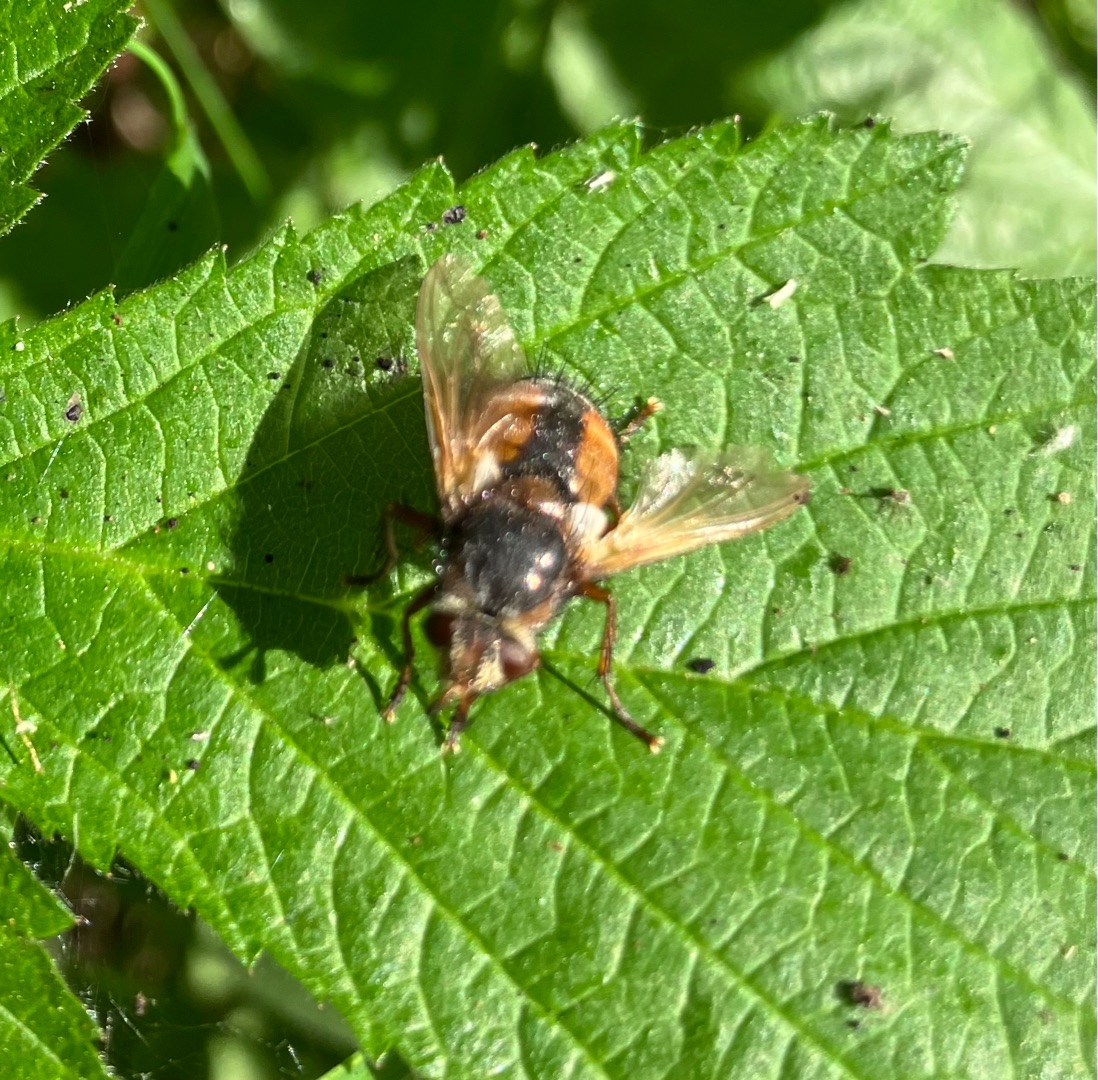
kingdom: Animalia
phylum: Arthropoda
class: Insecta
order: Diptera
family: Tachinidae
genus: Tachina
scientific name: Tachina fera
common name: Mellemfluen oskar
